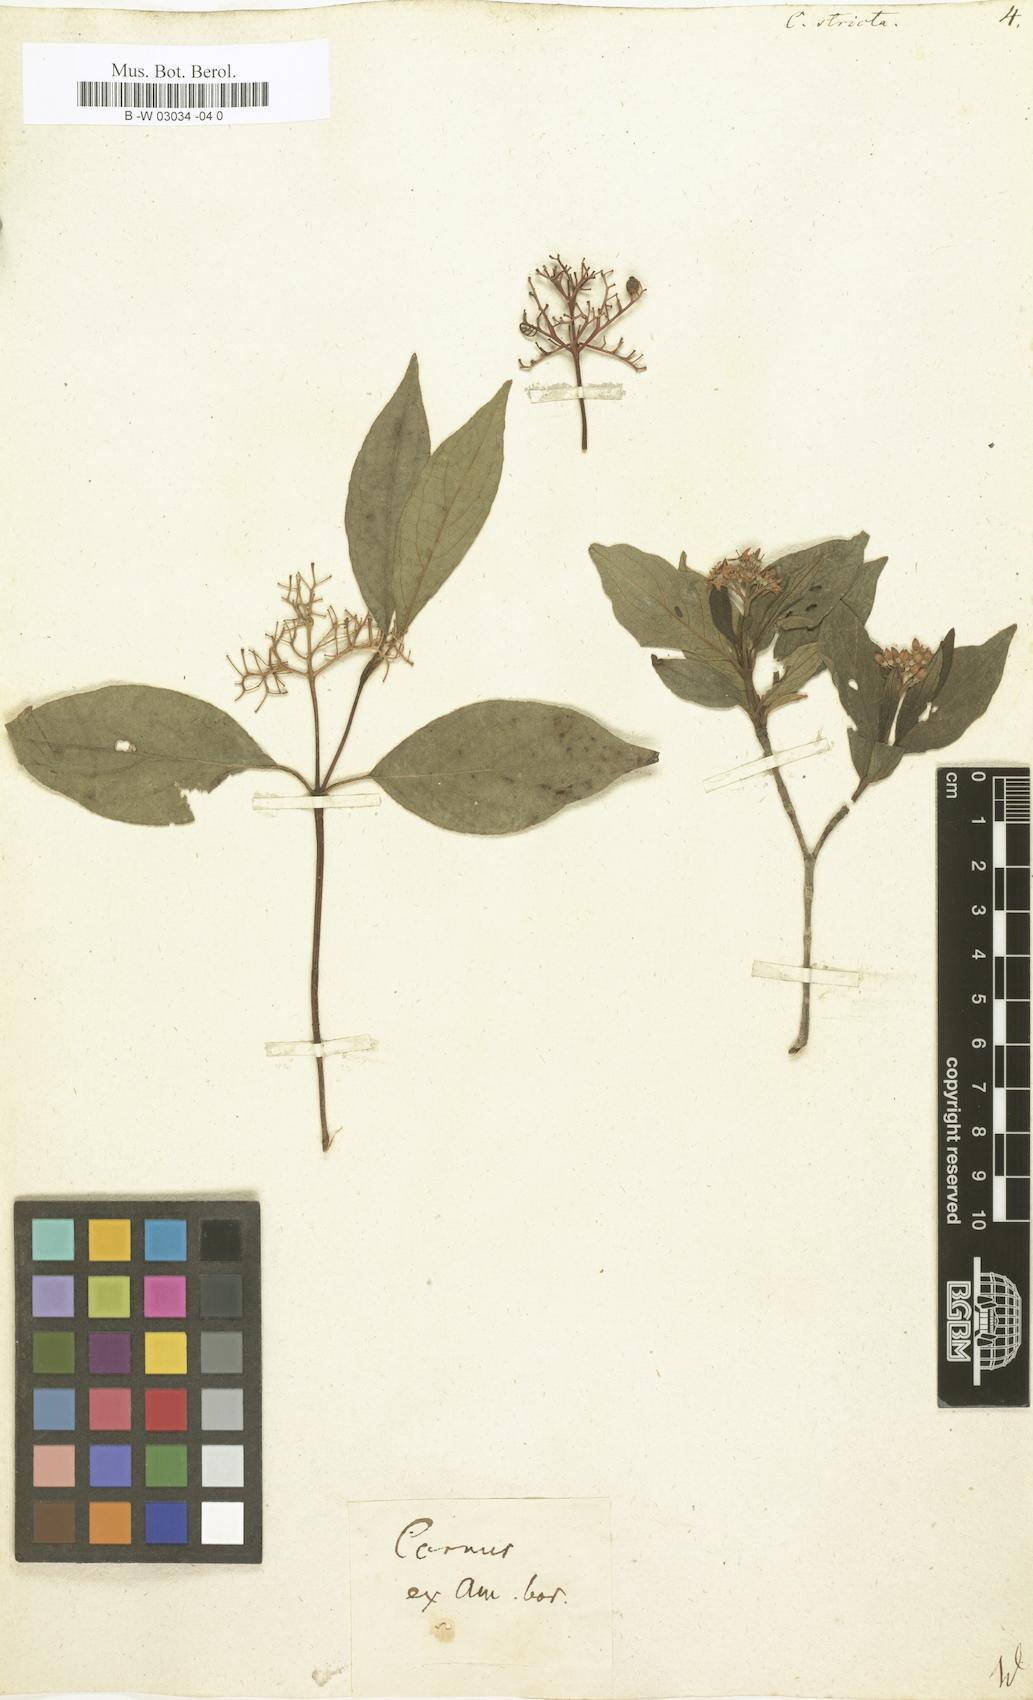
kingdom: Plantae
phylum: Tracheophyta
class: Magnoliopsida
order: Cornales
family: Cornaceae
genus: Cornus
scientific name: Cornus drummondii
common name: Rough-leaf dogwood
